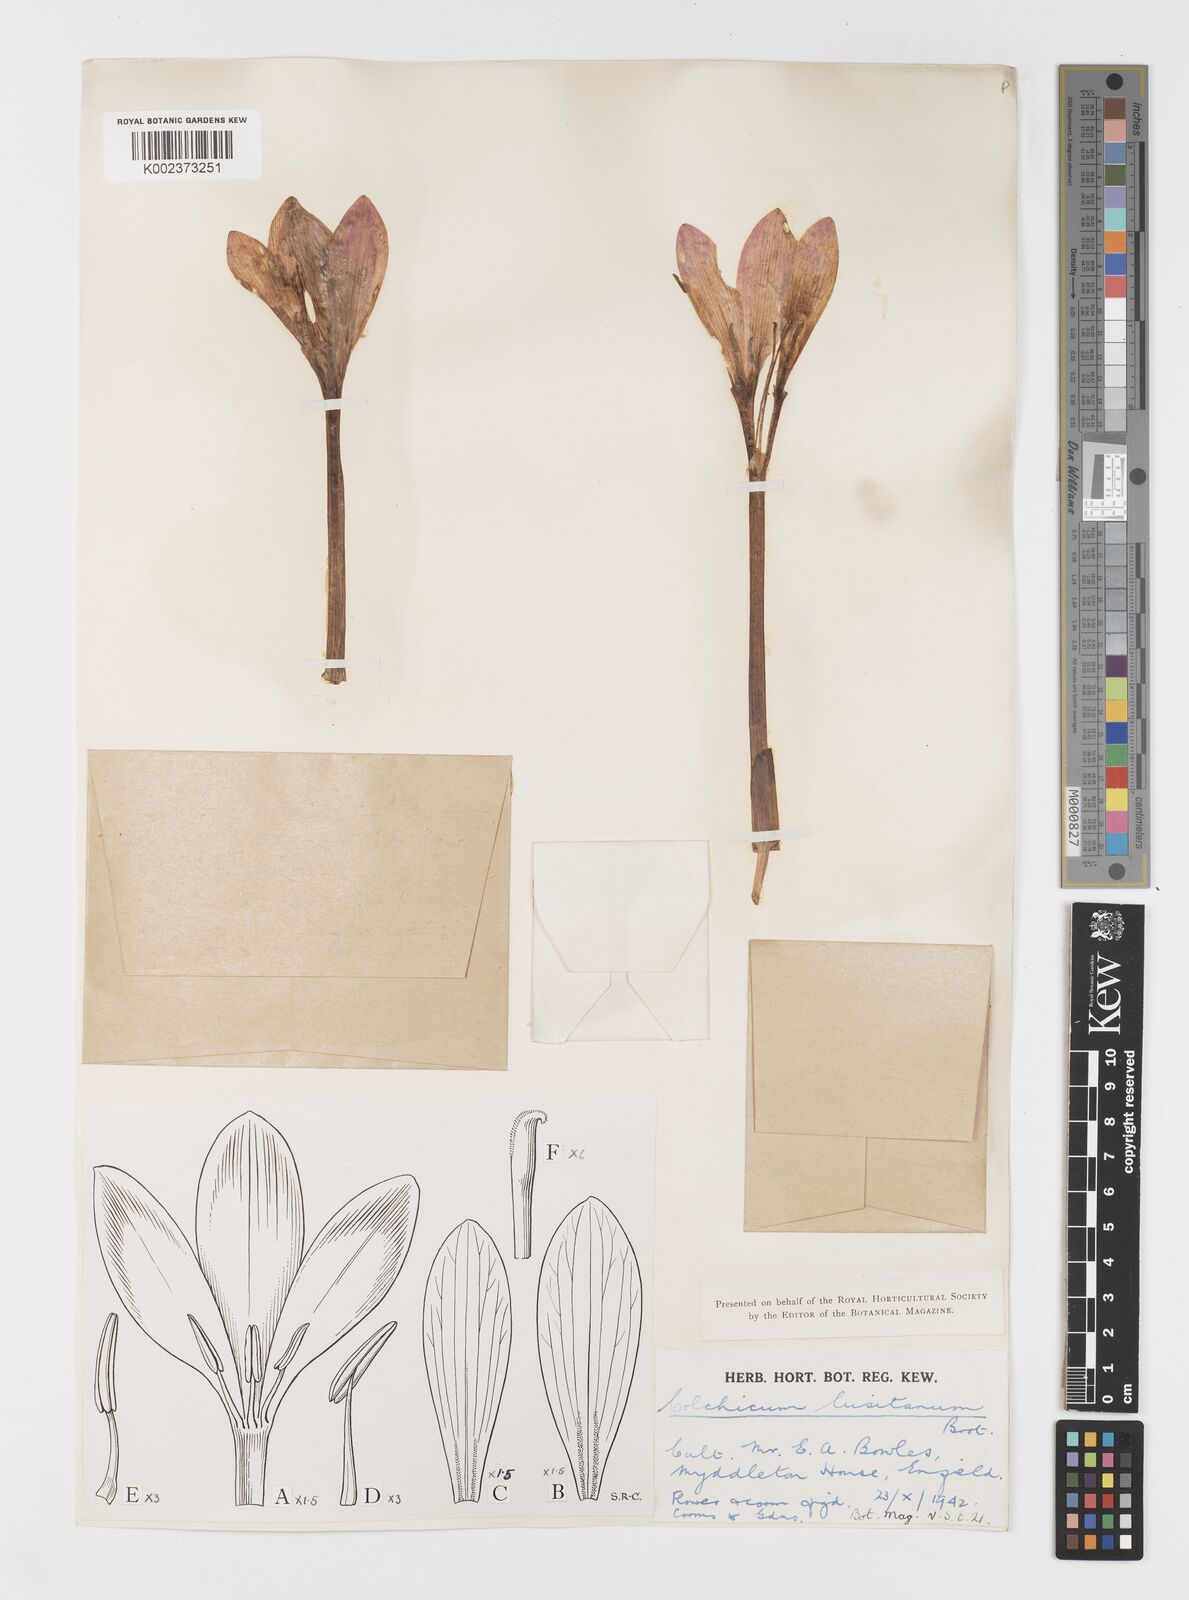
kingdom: Plantae
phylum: Tracheophyta
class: Liliopsida
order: Liliales
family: Colchicaceae
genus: Colchicum
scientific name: Colchicum lusitanum
